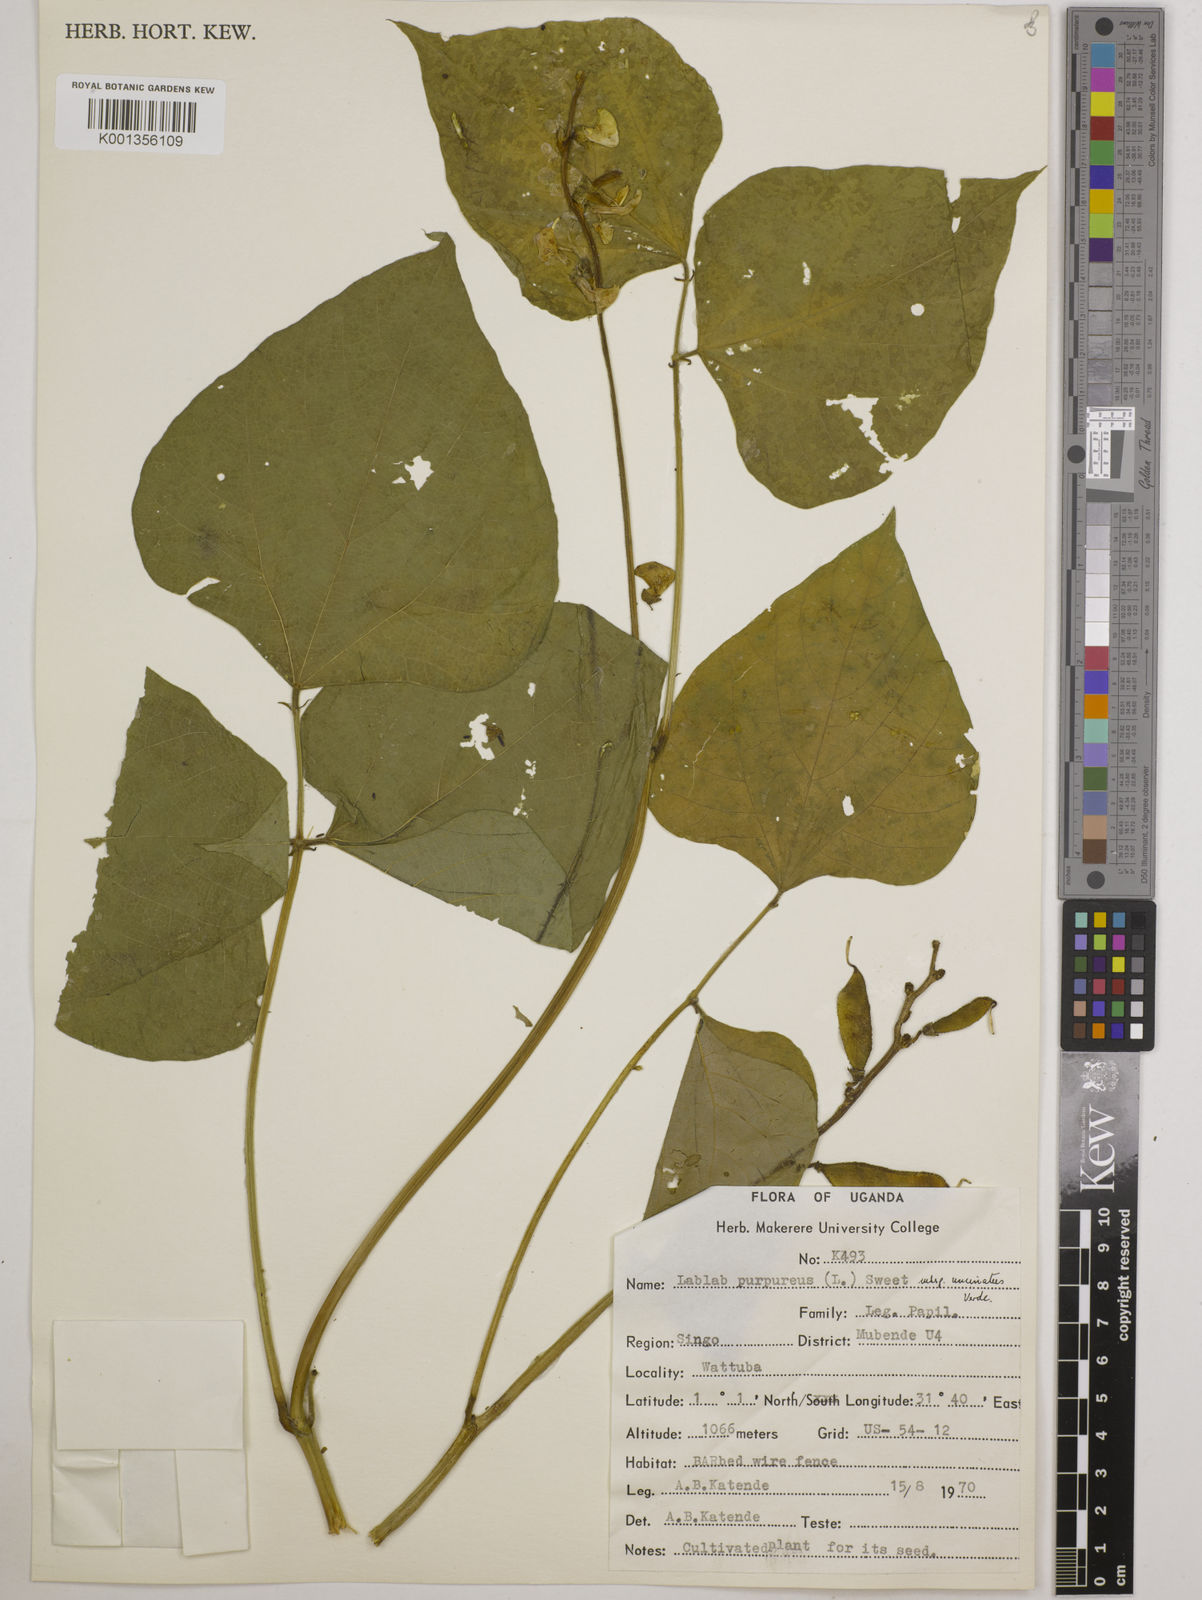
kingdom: Plantae
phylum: Tracheophyta
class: Magnoliopsida
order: Fabales
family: Fabaceae
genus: Lablab
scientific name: Lablab purpureus
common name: Lablab-bean
